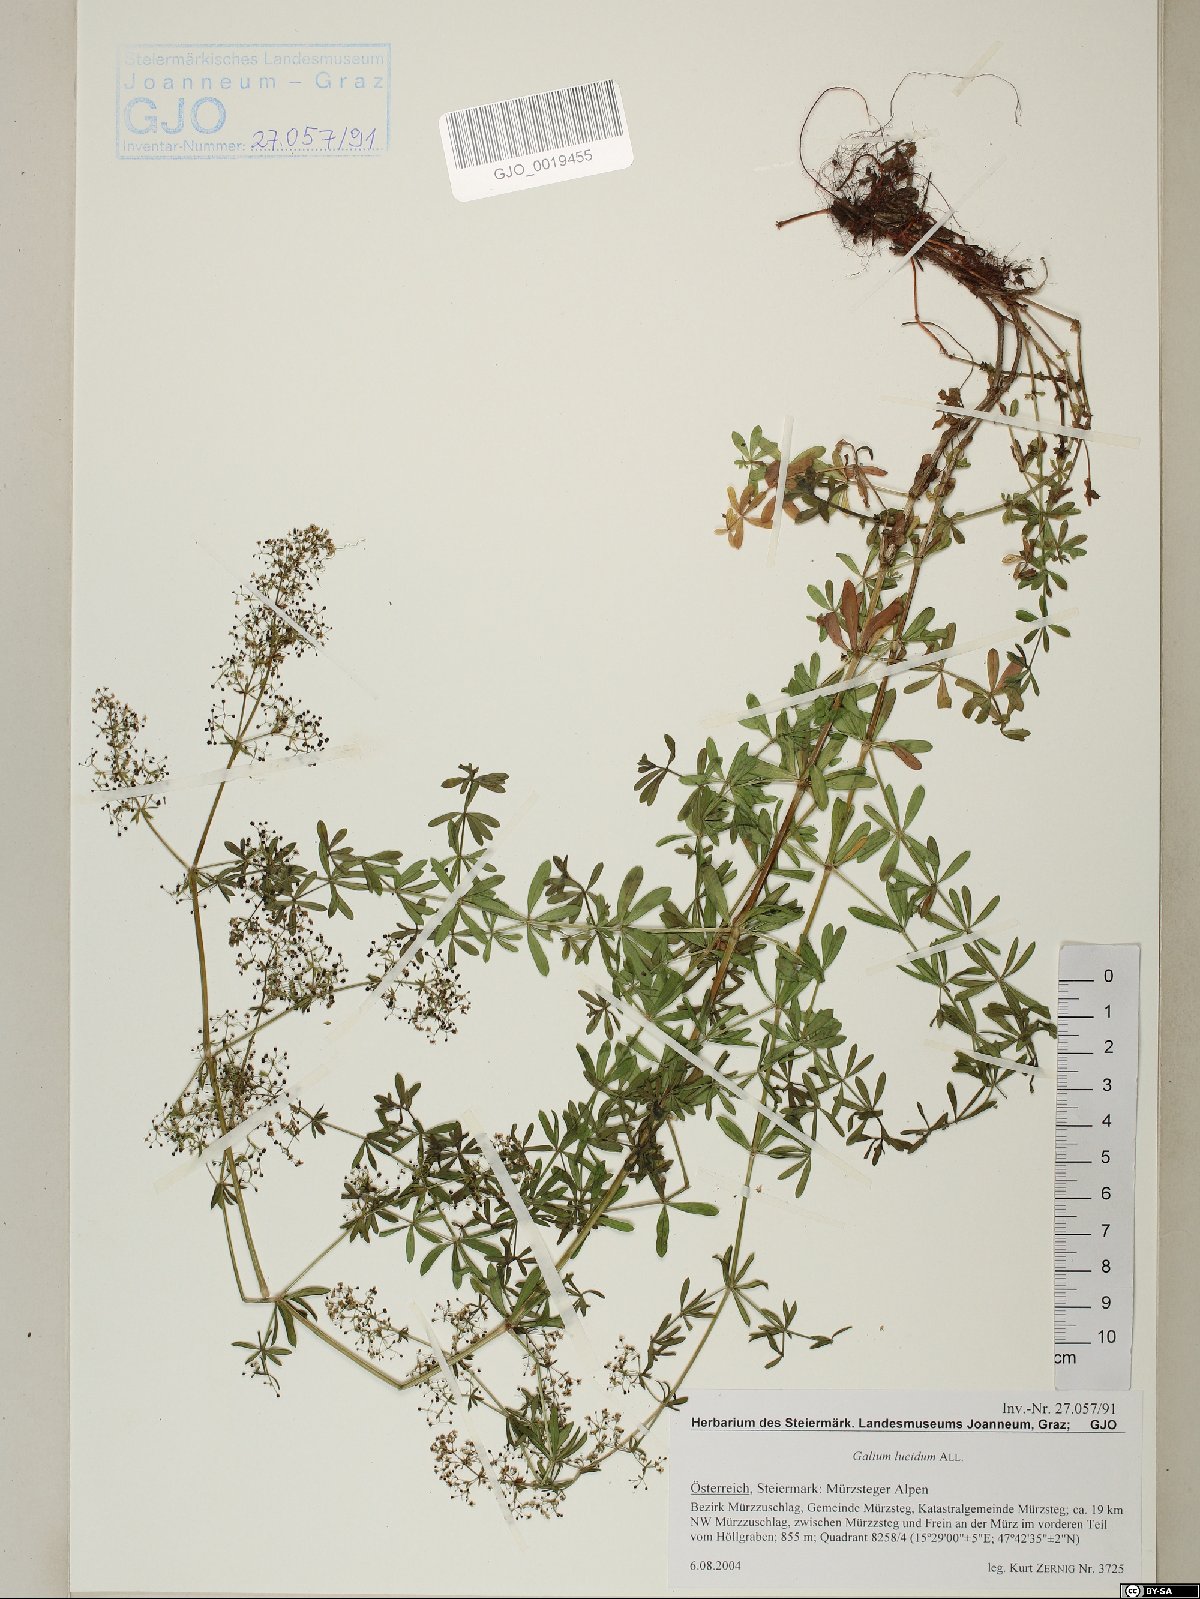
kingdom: Plantae
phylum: Tracheophyta
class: Magnoliopsida
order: Gentianales
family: Rubiaceae
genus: Galium
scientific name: Galium lucidum
